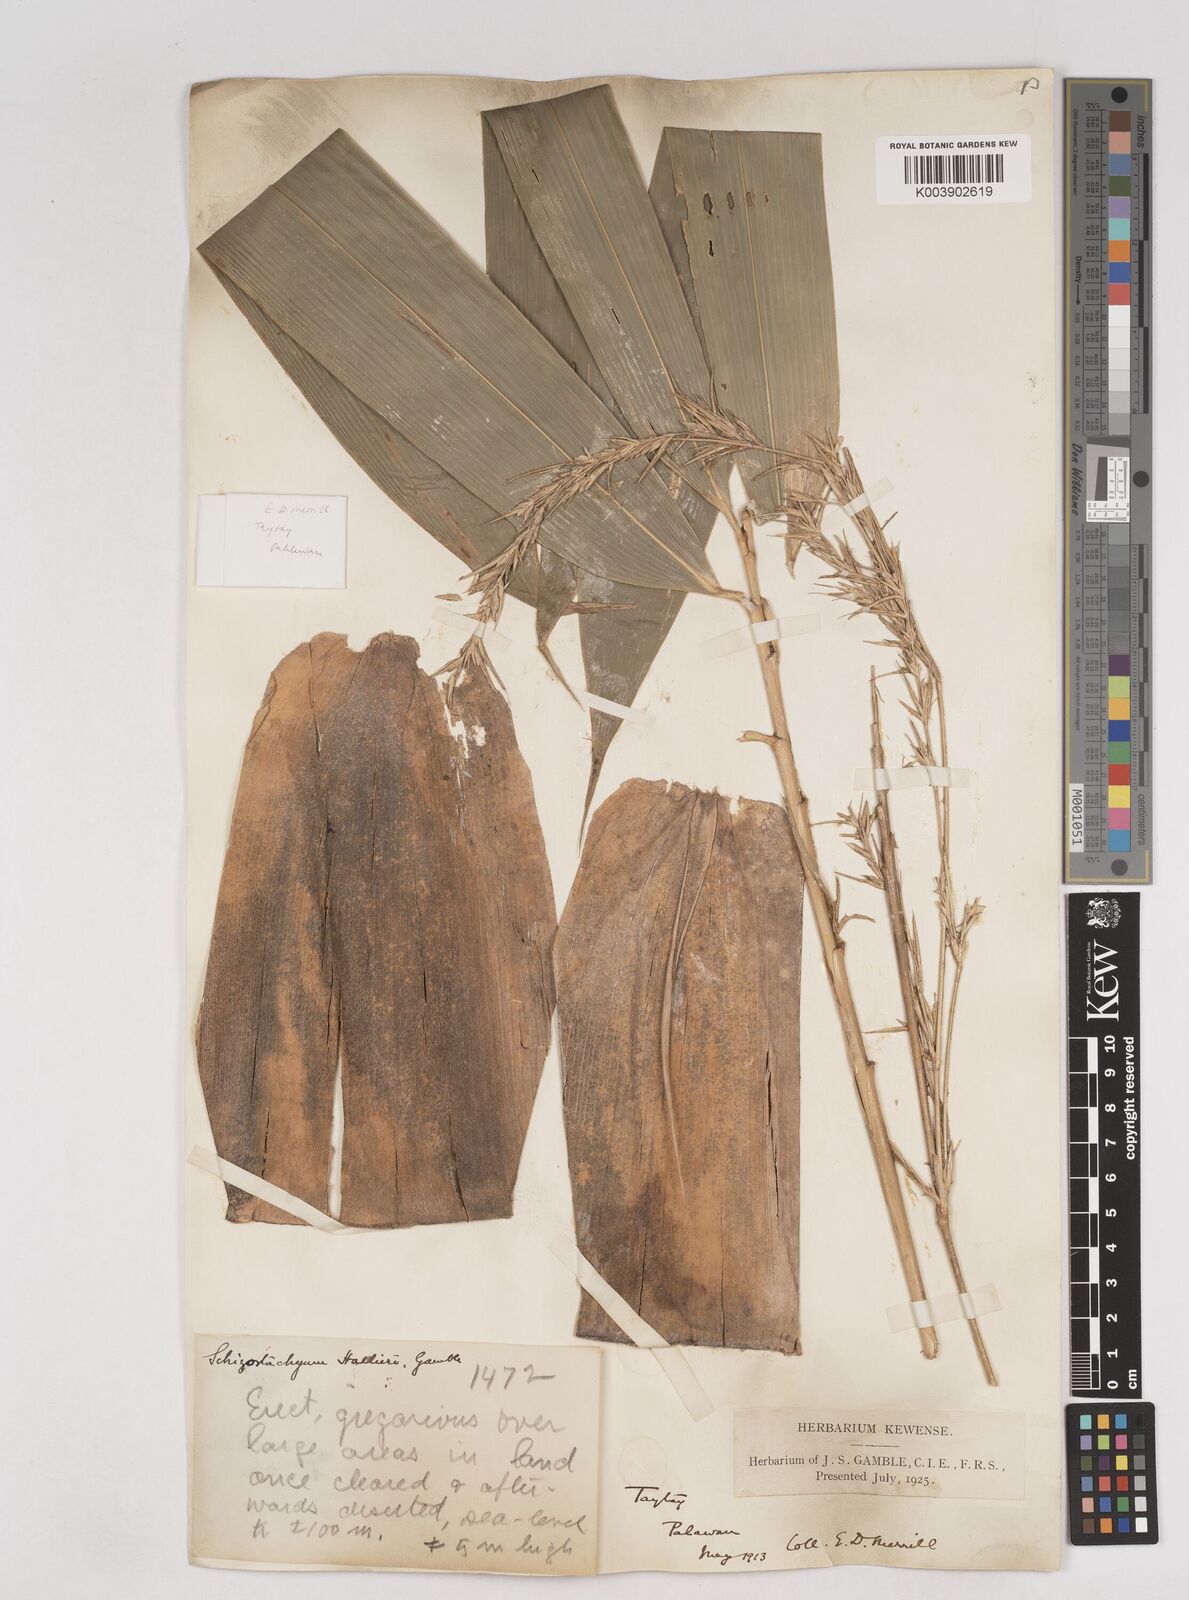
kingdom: Plantae
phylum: Tracheophyta
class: Liliopsida
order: Poales
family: Poaceae
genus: Schizostachyum
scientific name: Schizostachyum lima
